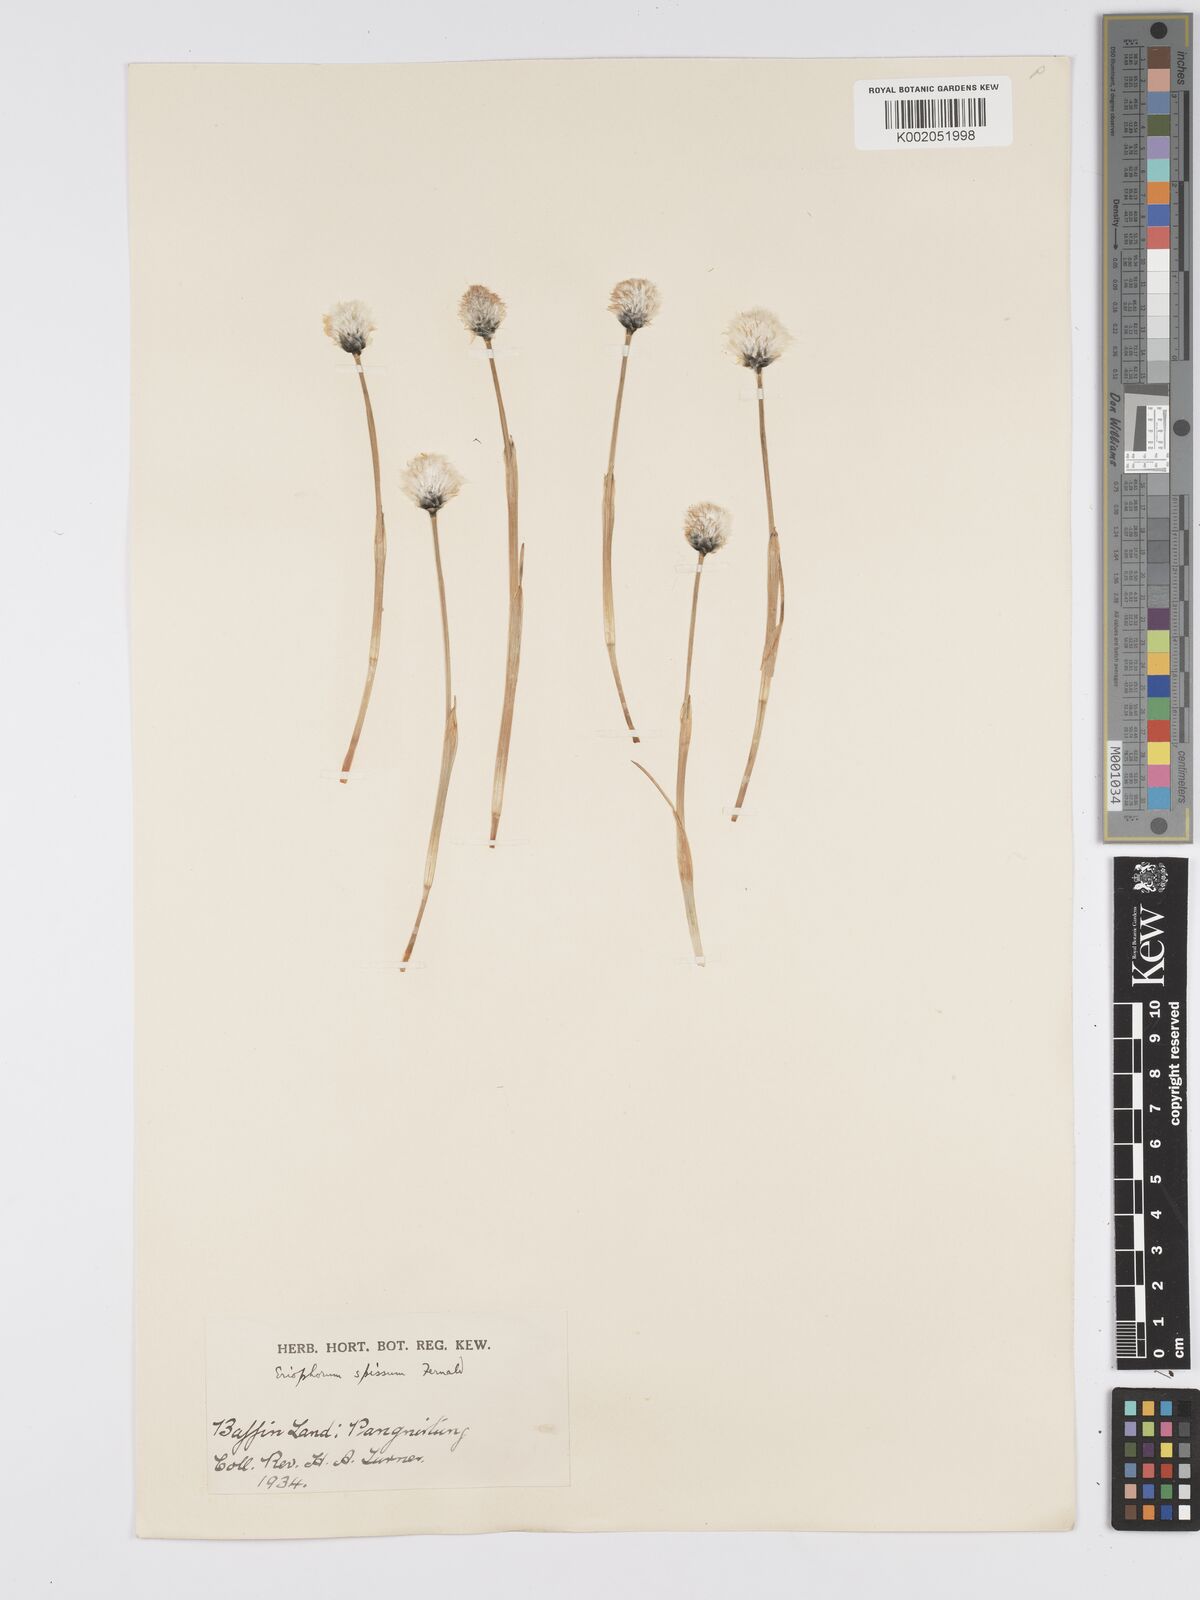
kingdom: Plantae
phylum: Tracheophyta
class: Liliopsida
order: Poales
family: Cyperaceae
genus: Eriophorum
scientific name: Eriophorum vaginatum
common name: Hare's-tail cottongrass
